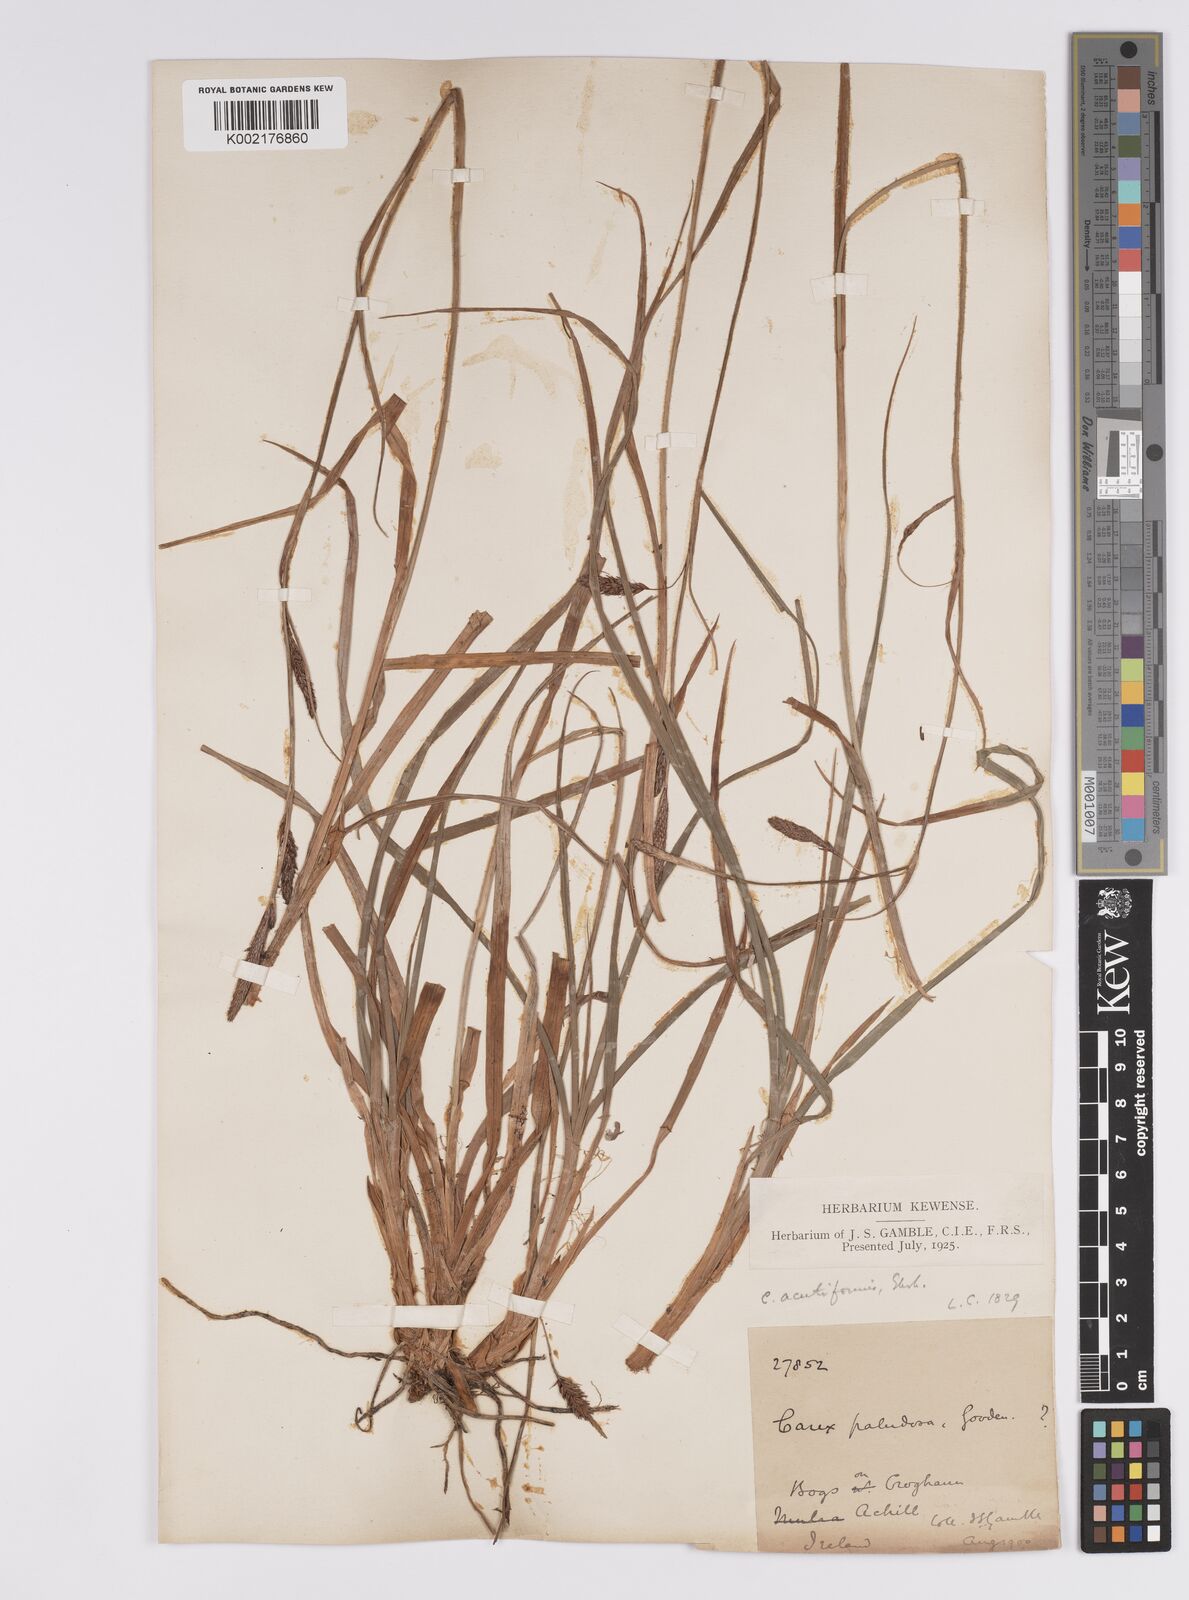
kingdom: Plantae
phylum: Tracheophyta
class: Liliopsida
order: Poales
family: Cyperaceae
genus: Carex
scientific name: Carex binervis
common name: Green-ribbed sedge
